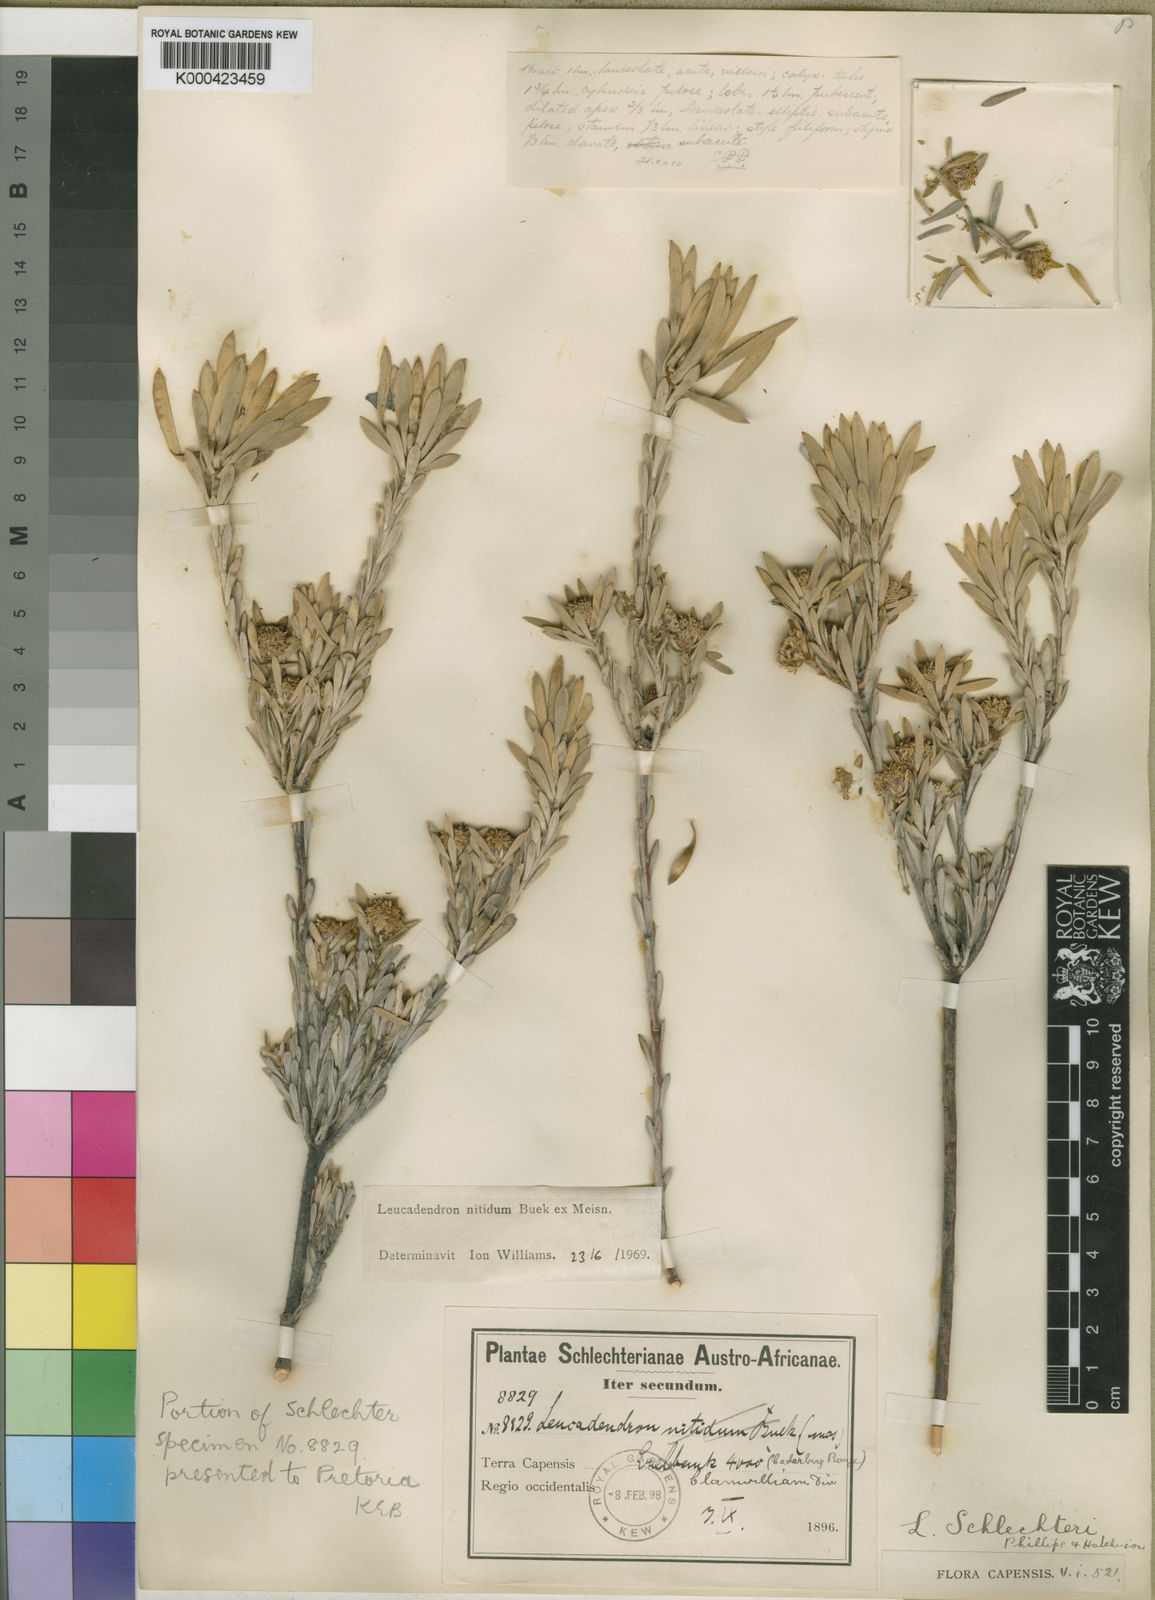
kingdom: Plantae
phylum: Tracheophyta
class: Magnoliopsida
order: Proteales
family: Proteaceae
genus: Leucadendron
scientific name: Leucadendron nitidum
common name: Bokkeveld conebush
